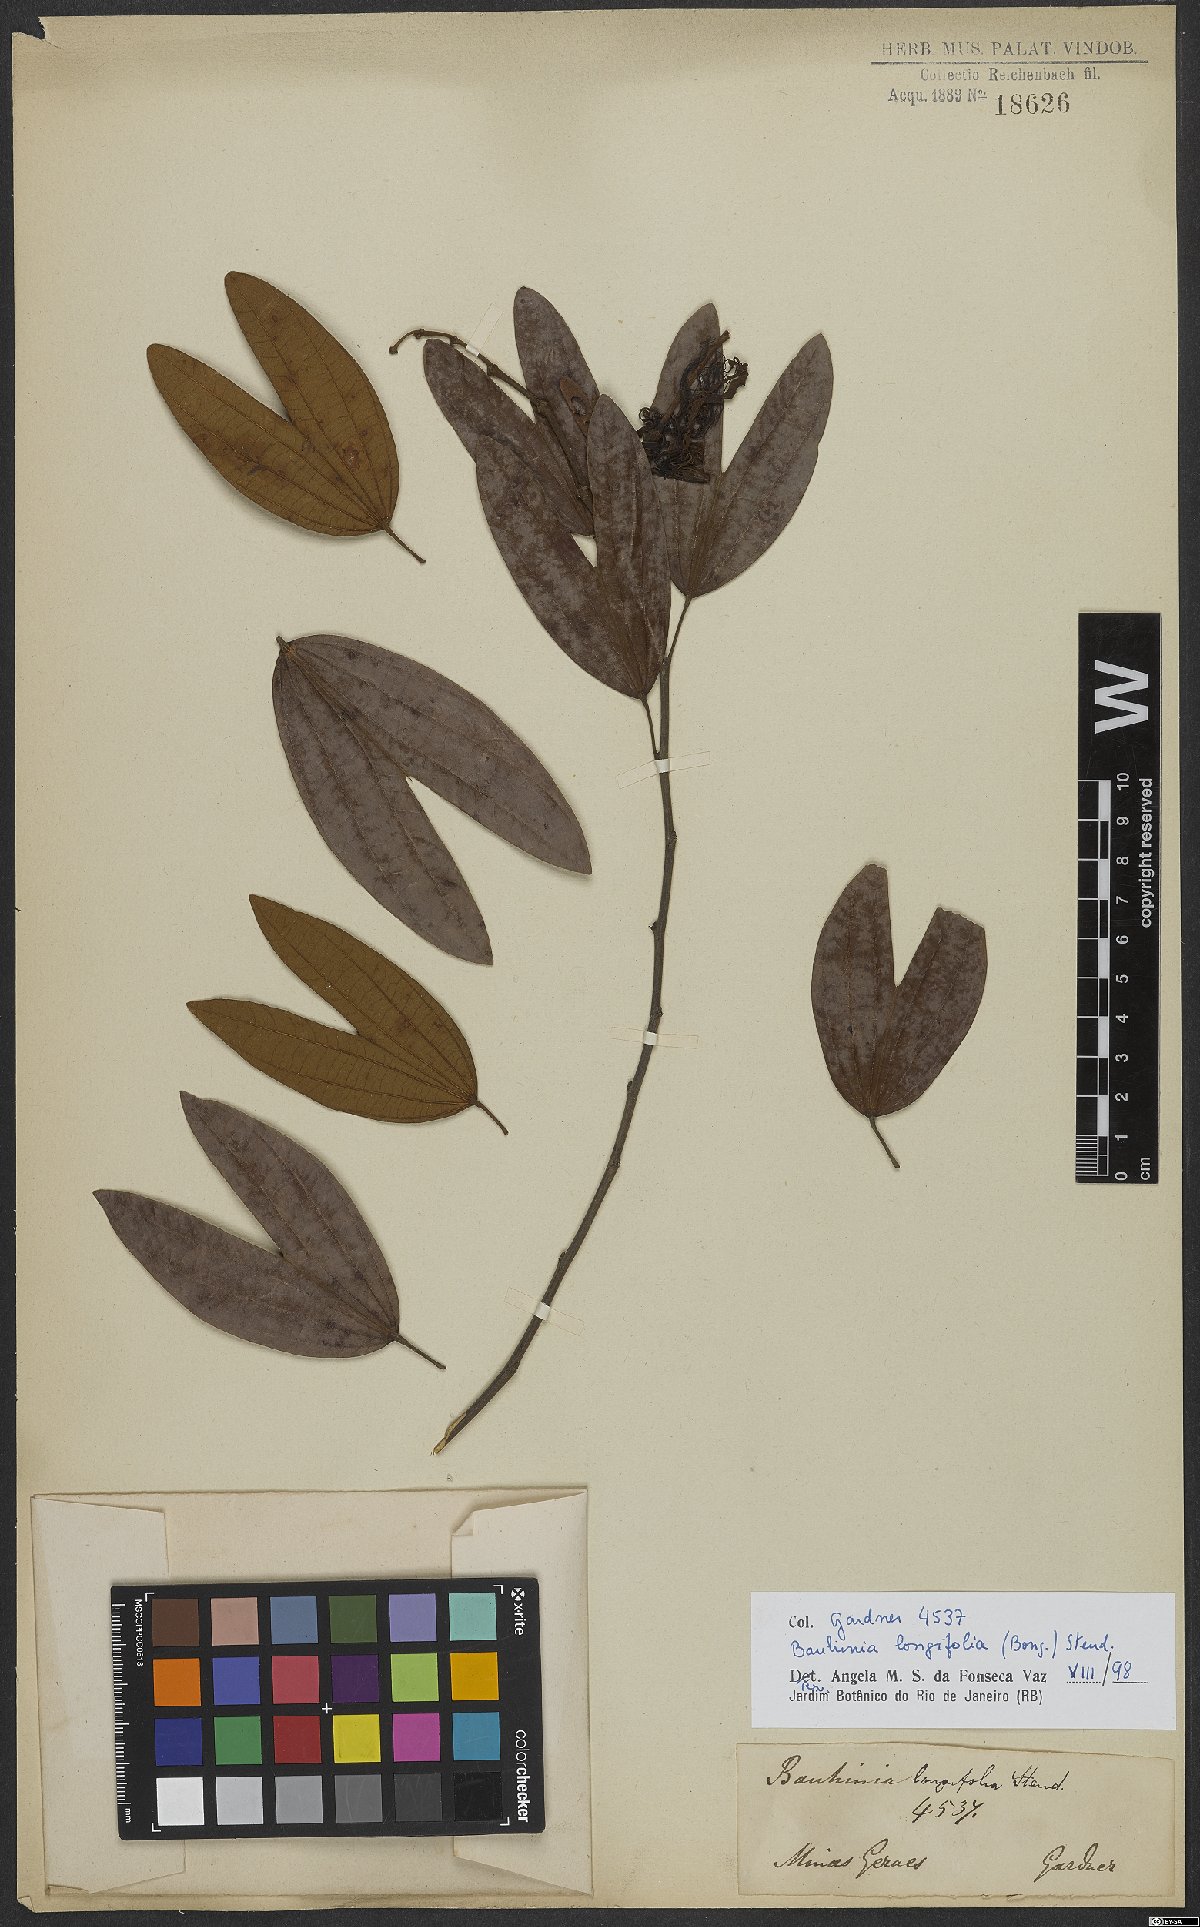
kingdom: Plantae
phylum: Tracheophyta
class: Magnoliopsida
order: Fabales
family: Fabaceae
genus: Bauhinia
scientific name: Bauhinia longifolia
